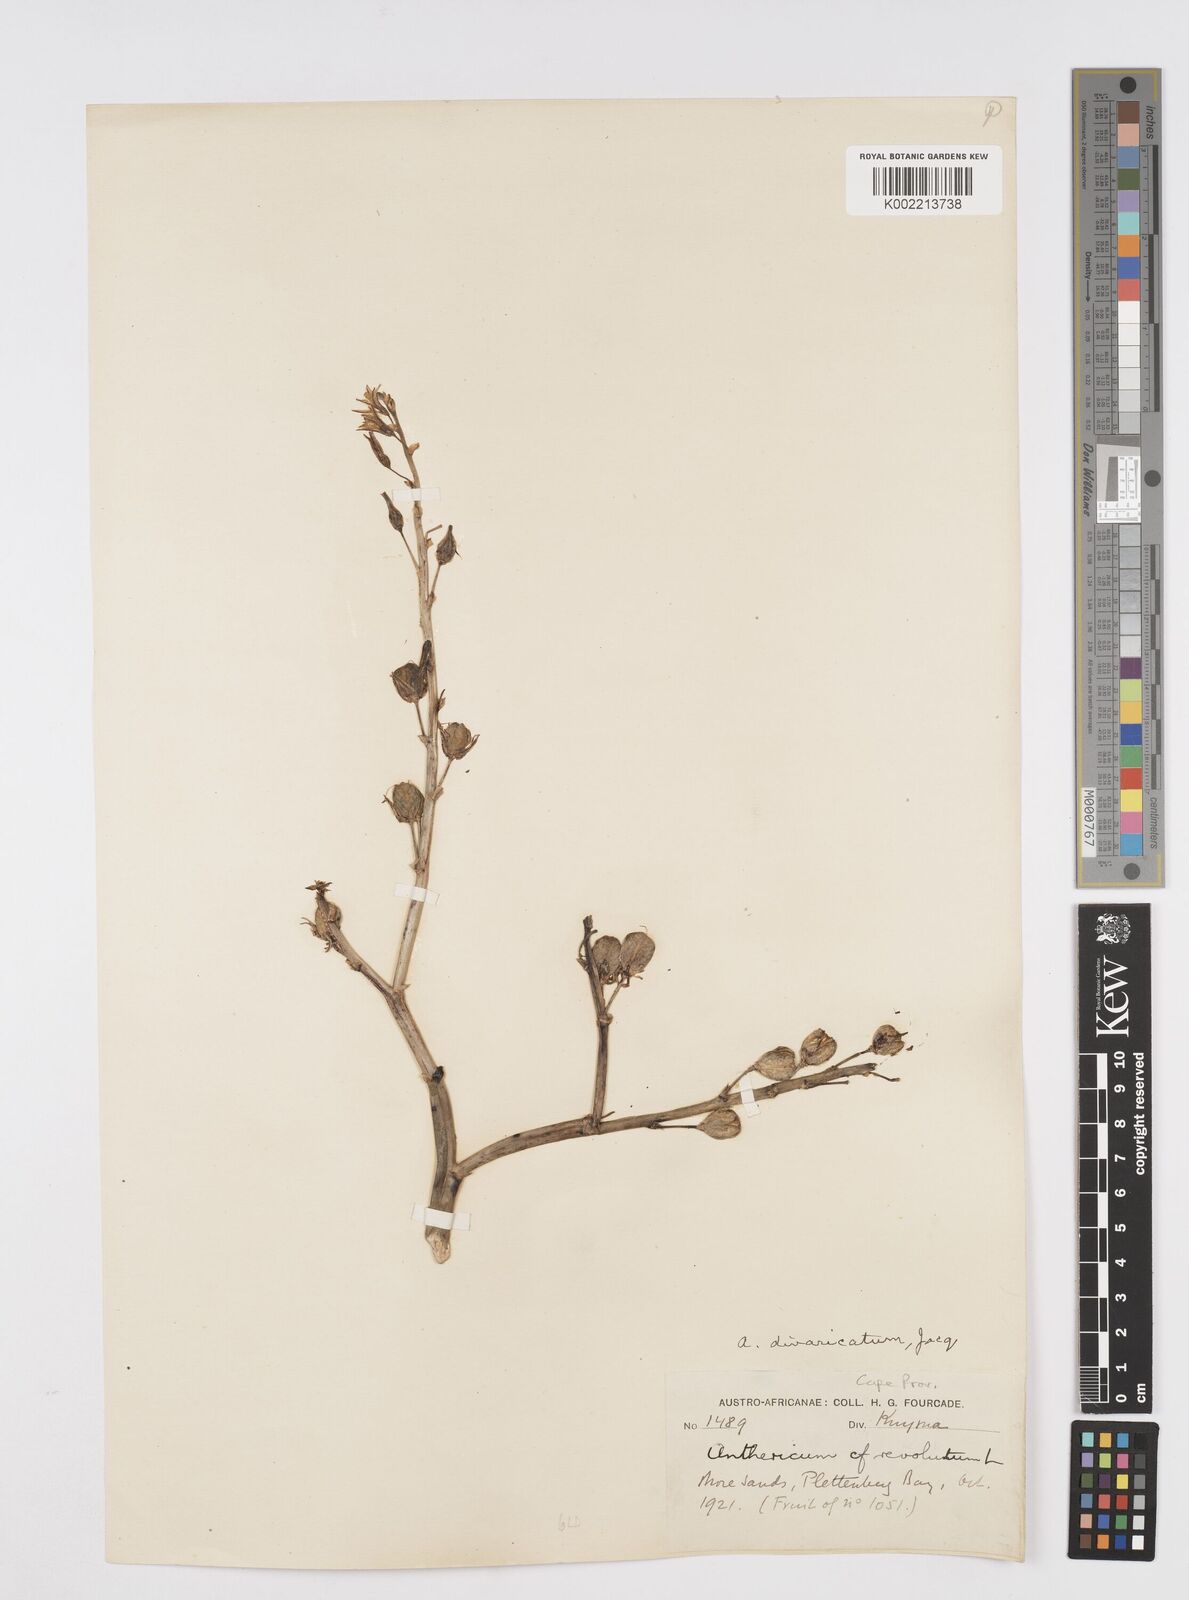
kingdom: Plantae
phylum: Tracheophyta
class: Liliopsida
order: Asparagales
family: Asphodelaceae
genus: Trachyandra
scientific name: Trachyandra divaricata
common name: Dune onionweed
